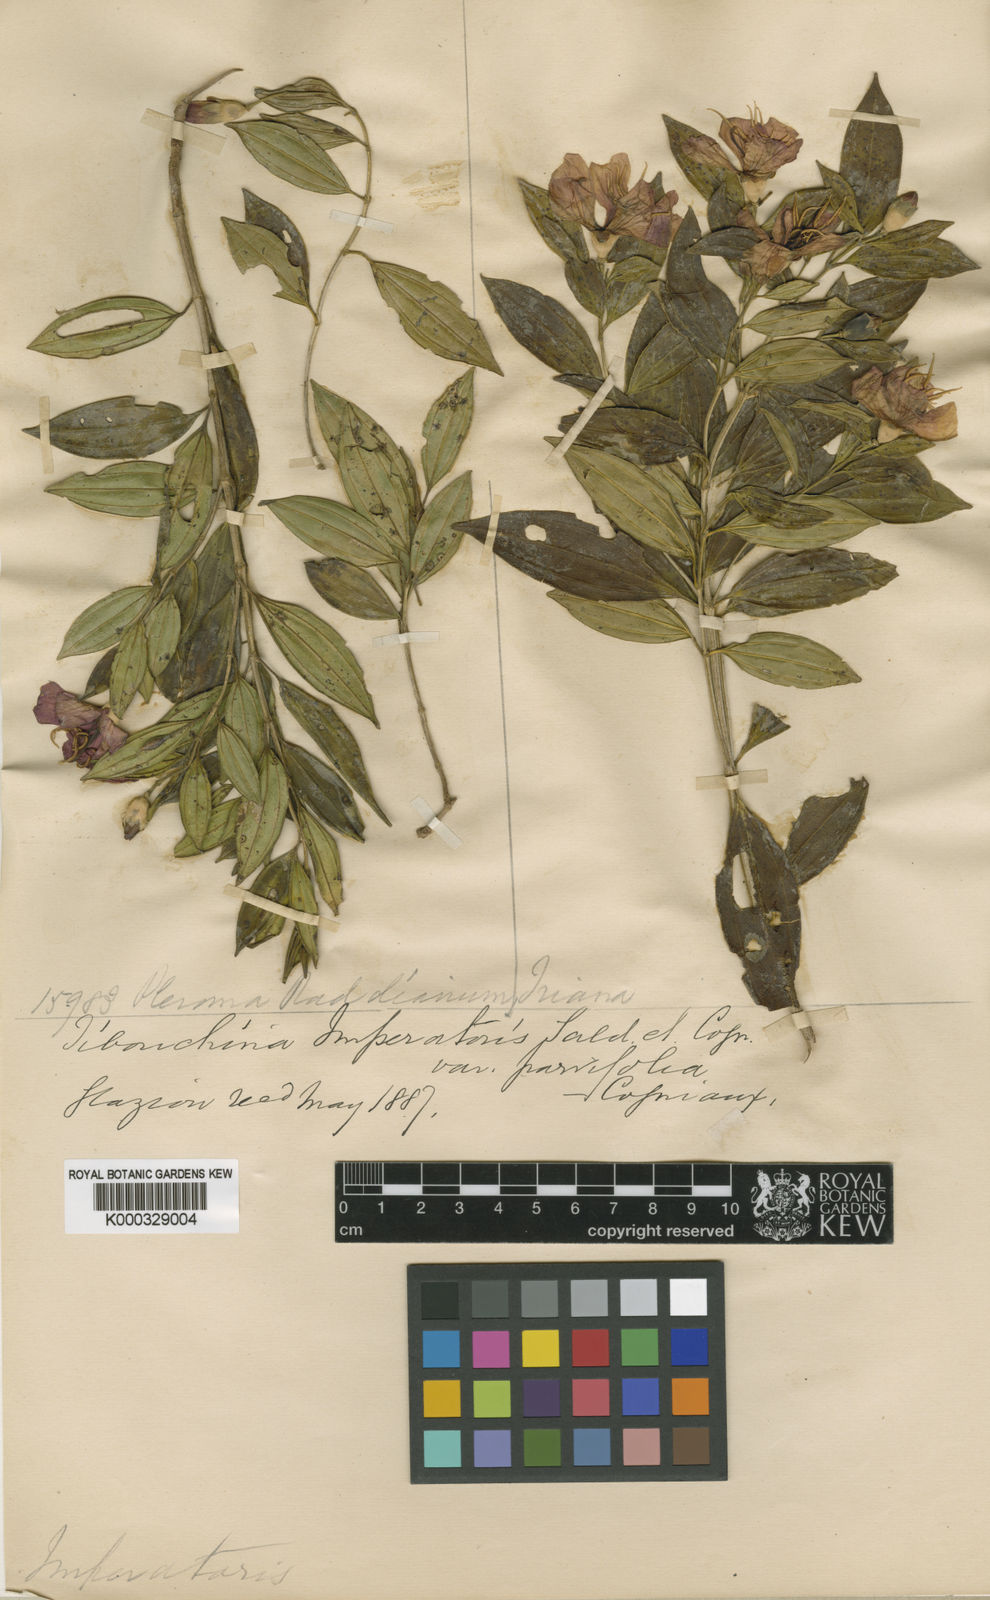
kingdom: Plantae
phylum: Tracheophyta
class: Magnoliopsida
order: Myrtales
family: Melastomataceae
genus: Pleroma
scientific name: Pleroma sellowianum
